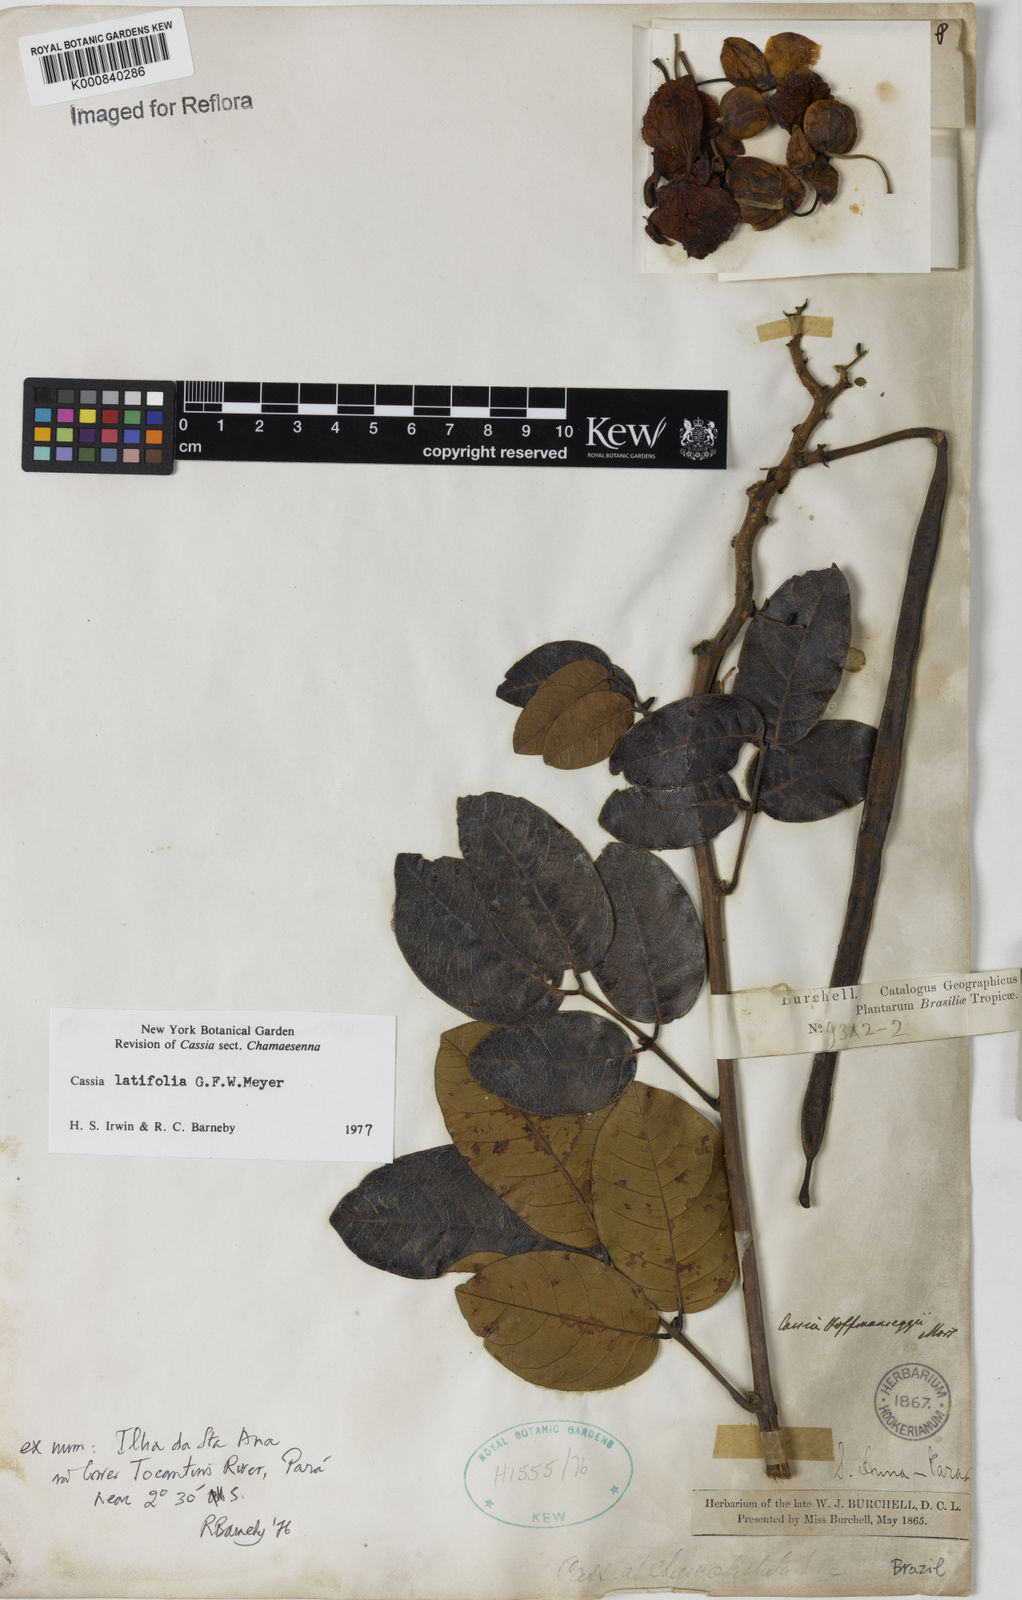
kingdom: Plantae
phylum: Tracheophyta
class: Magnoliopsida
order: Fabales
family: Fabaceae
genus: Senna
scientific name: Senna latifolia
